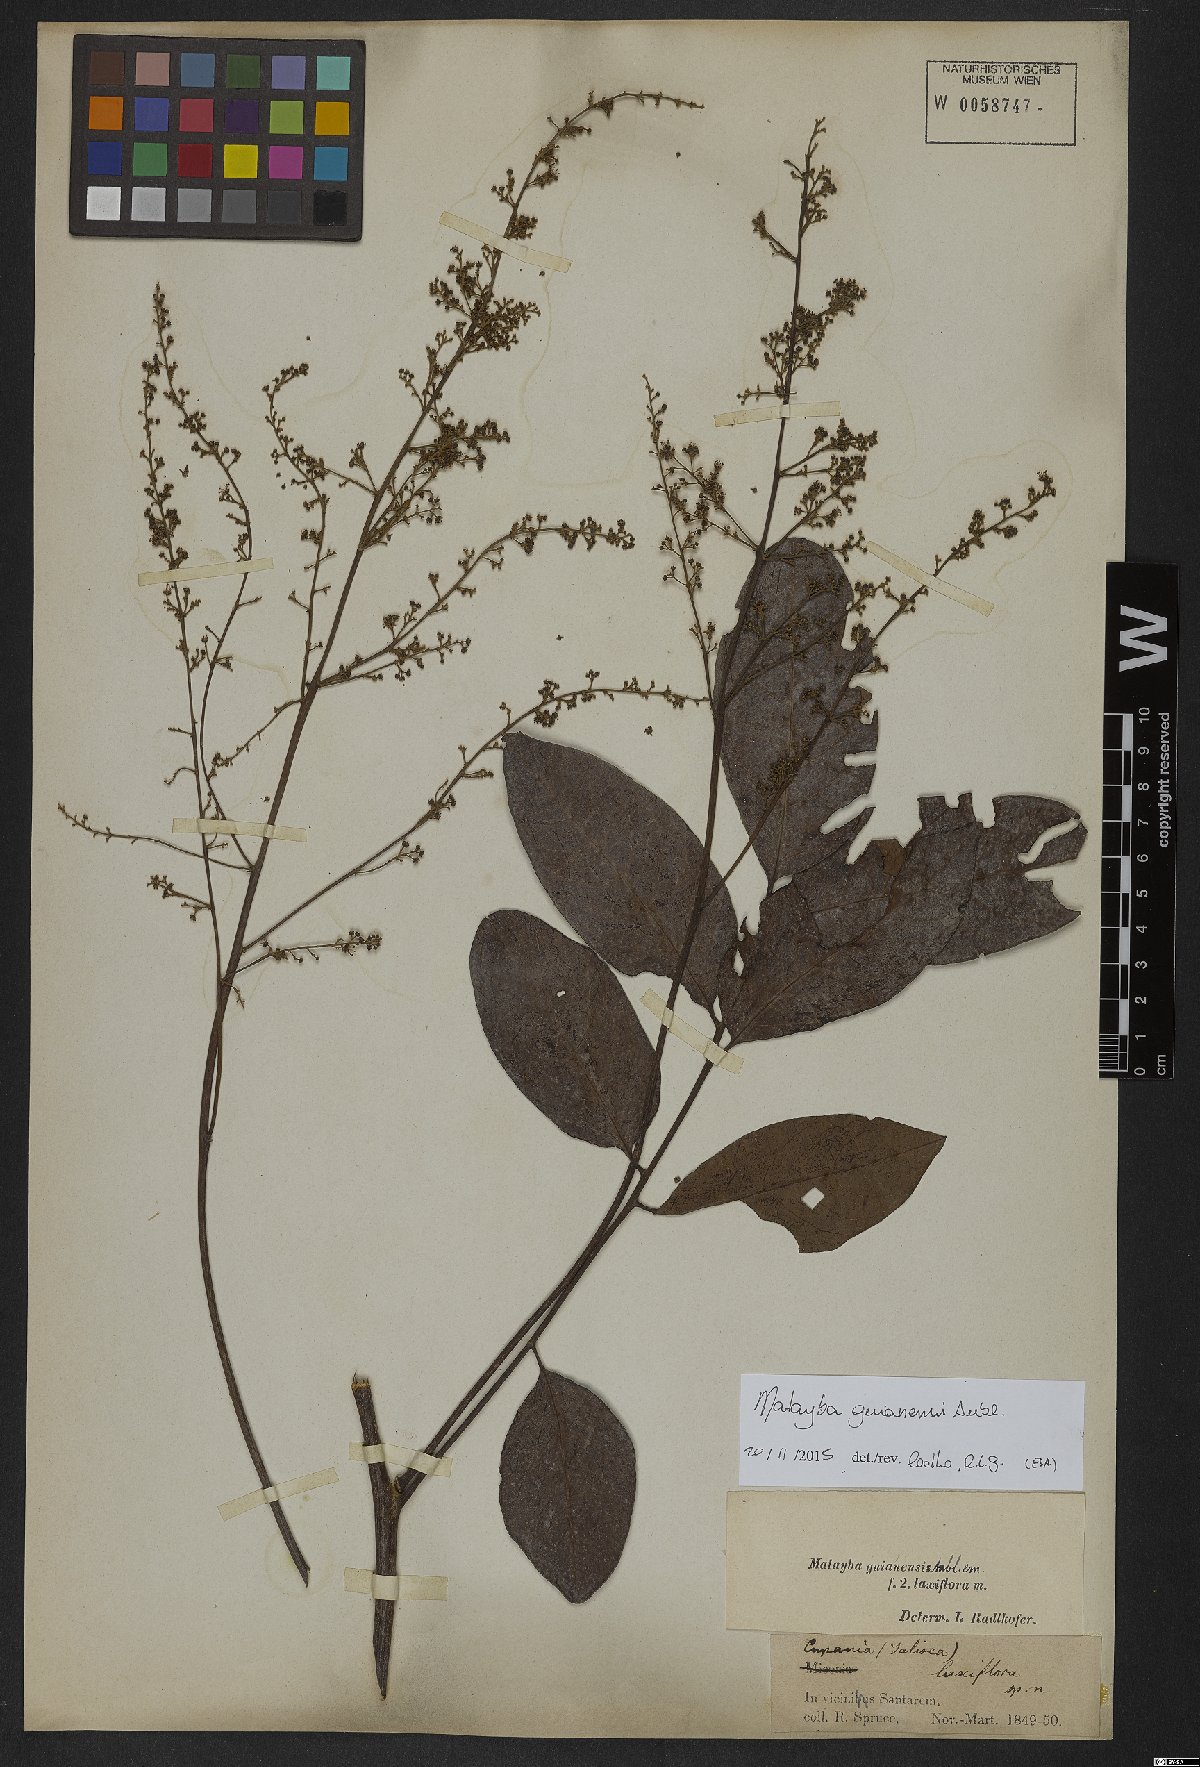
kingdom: Plantae
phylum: Tracheophyta
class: Magnoliopsida
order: Sapindales
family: Sapindaceae
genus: Matayba
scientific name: Matayba guianensis
